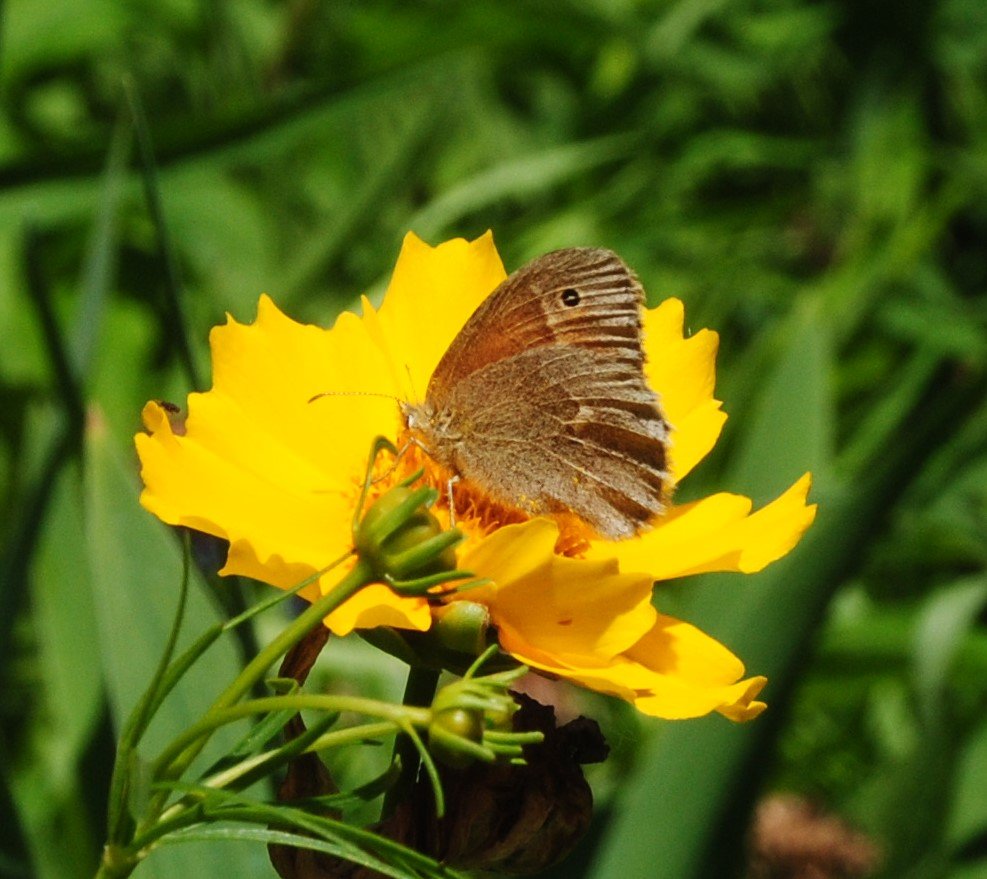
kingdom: Animalia
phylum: Arthropoda
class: Insecta
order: Lepidoptera
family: Nymphalidae
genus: Coenonympha
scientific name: Coenonympha tullia
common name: Large Heath
